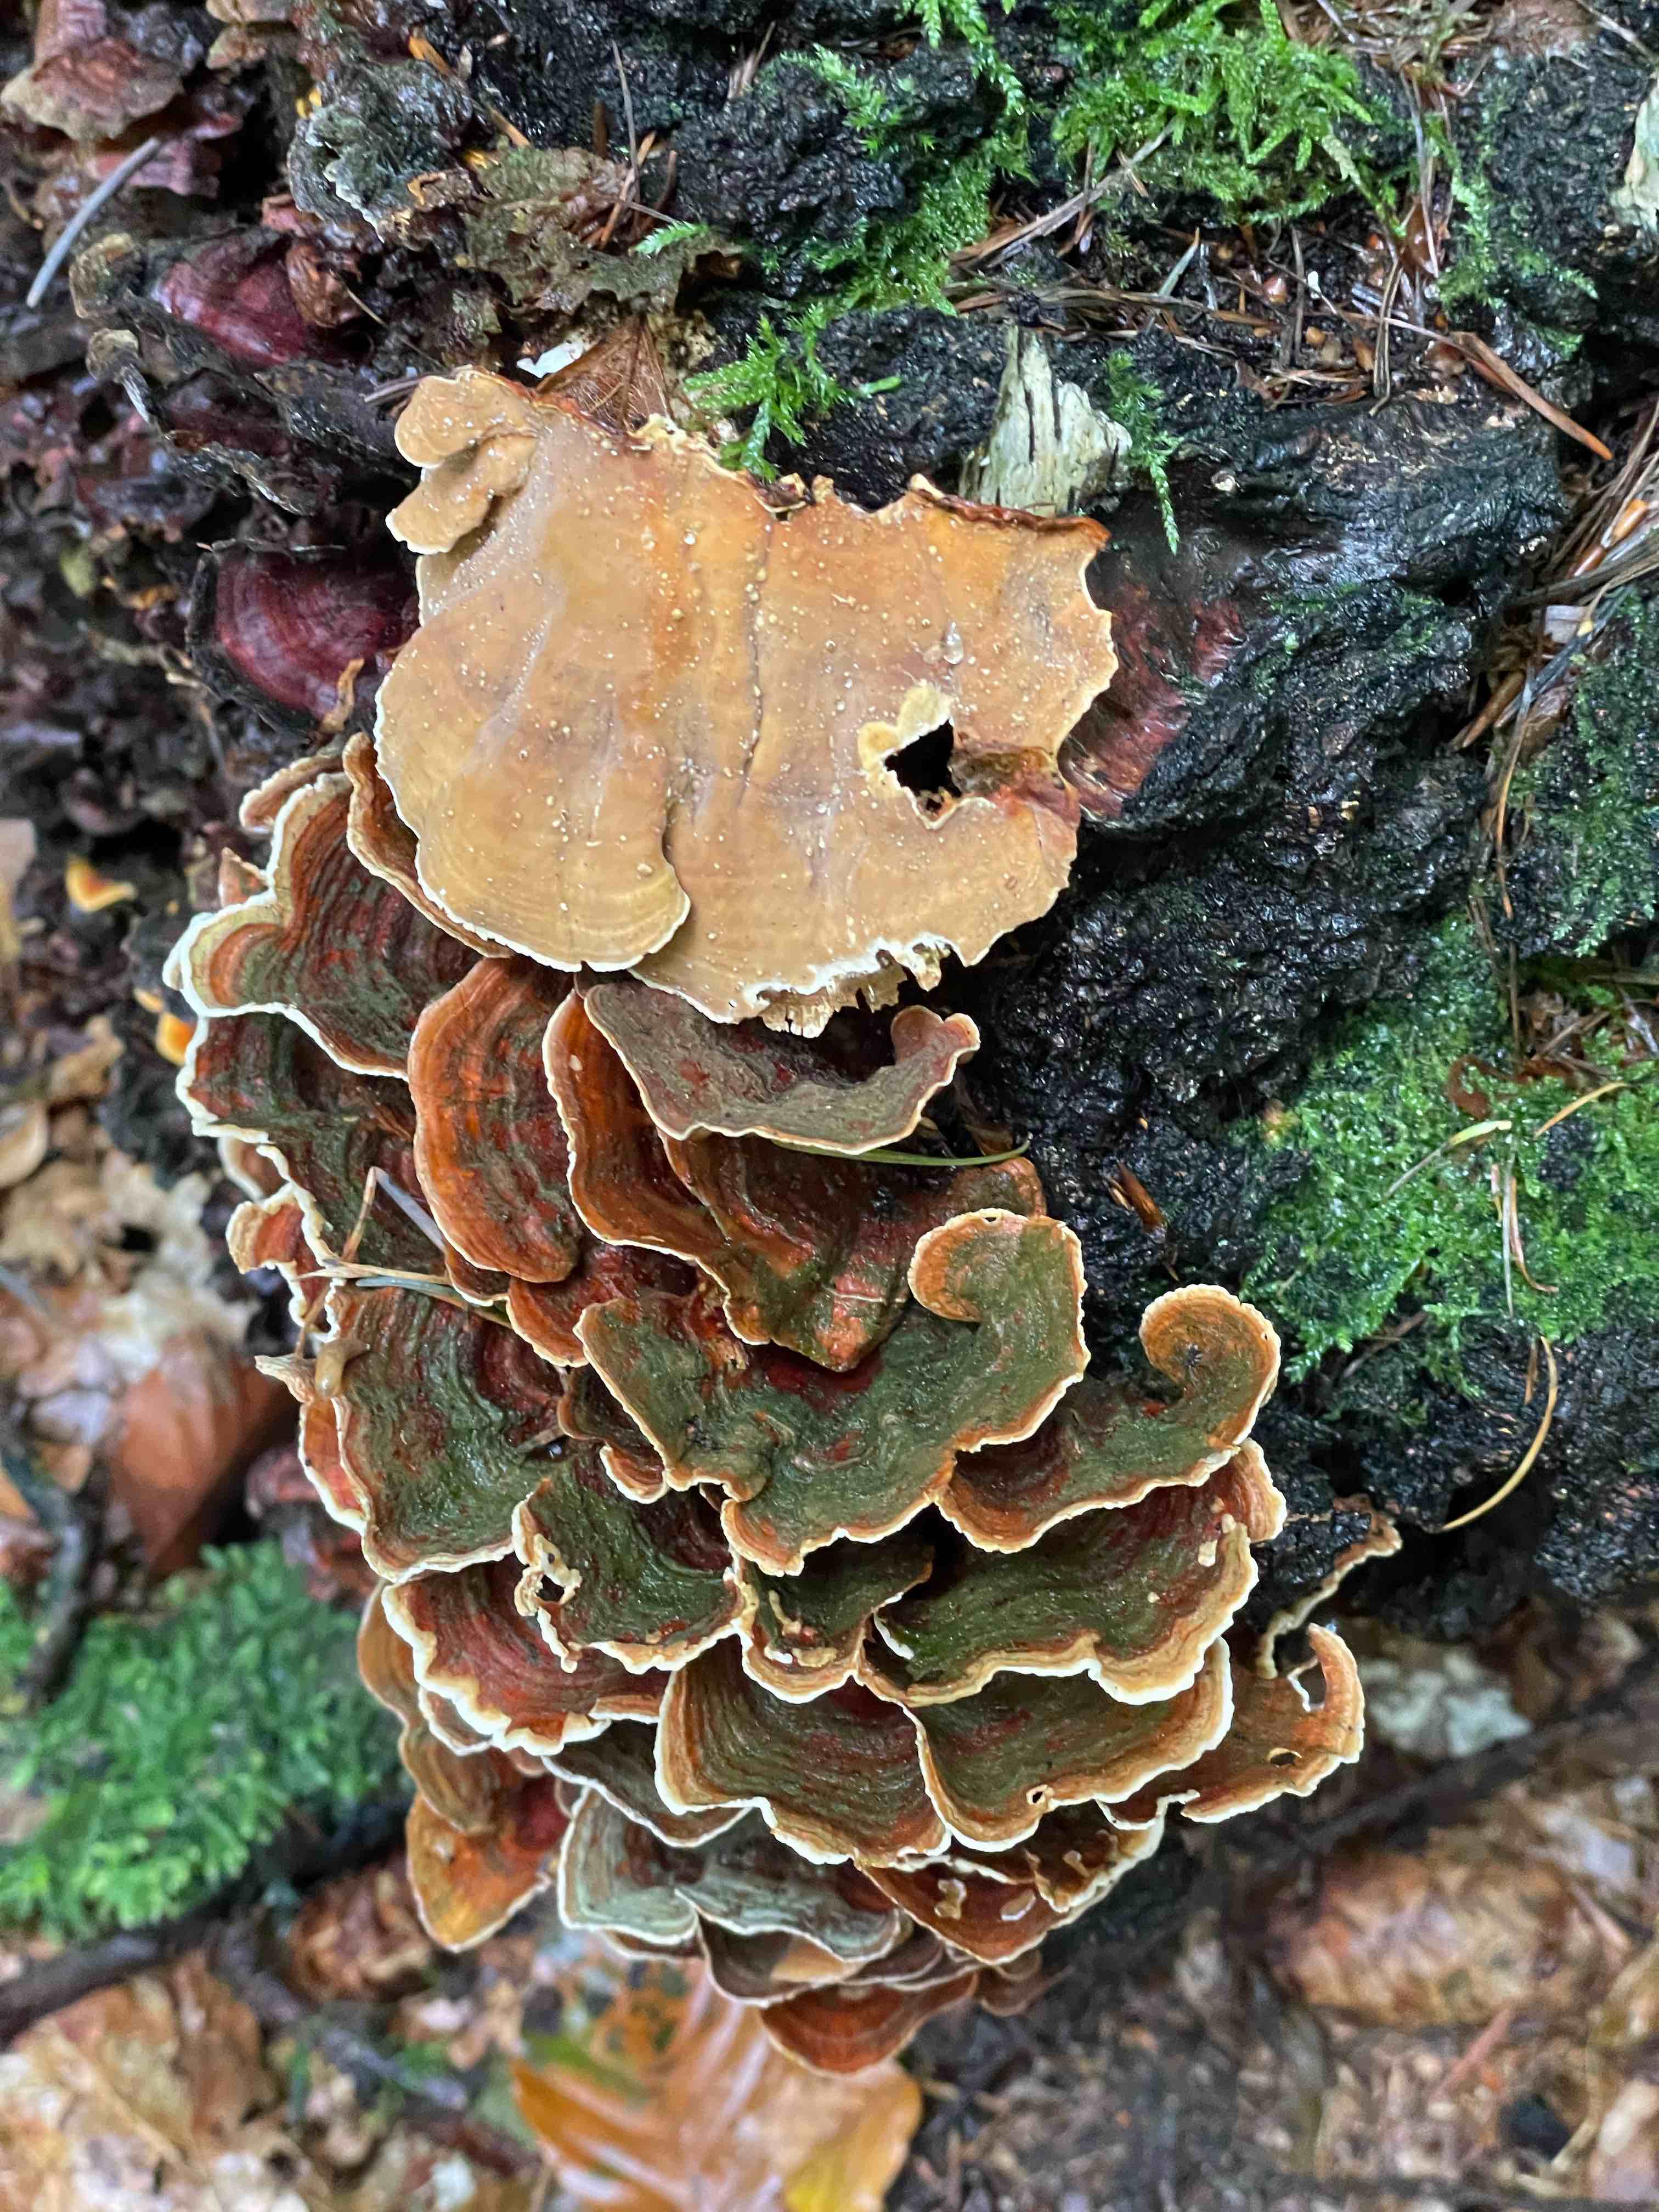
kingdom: Fungi
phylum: Basidiomycota
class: Agaricomycetes
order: Russulales
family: Stereaceae
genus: Stereum
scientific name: Stereum subtomentosum
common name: smuk lædersvamp
